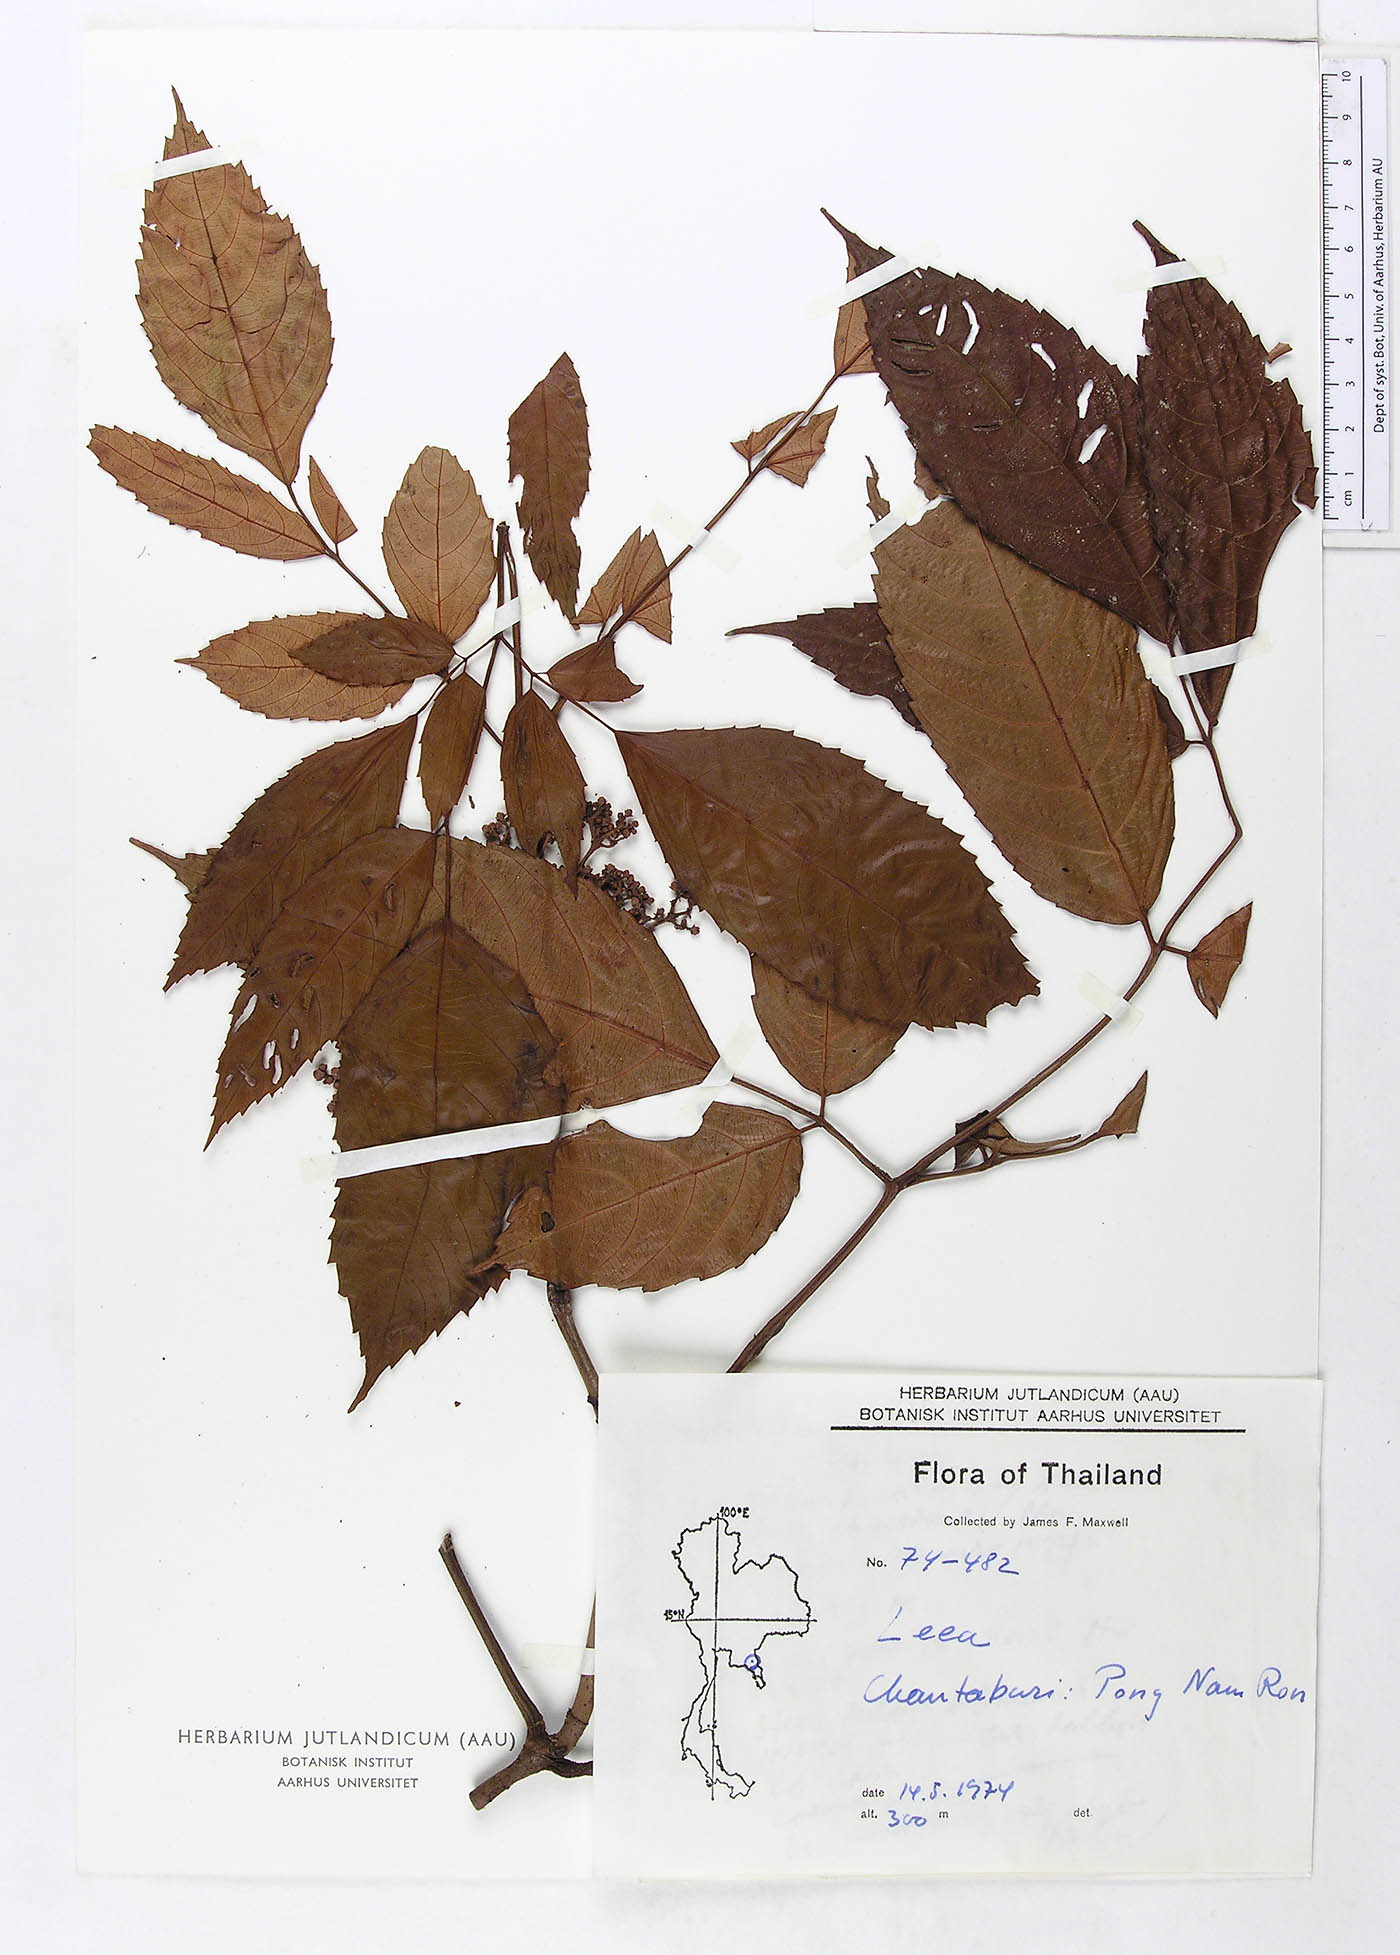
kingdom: Plantae
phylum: Tracheophyta
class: Magnoliopsida
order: Vitales
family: Vitaceae
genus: Leea
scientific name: Leea indica
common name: Bandicoot-berry
